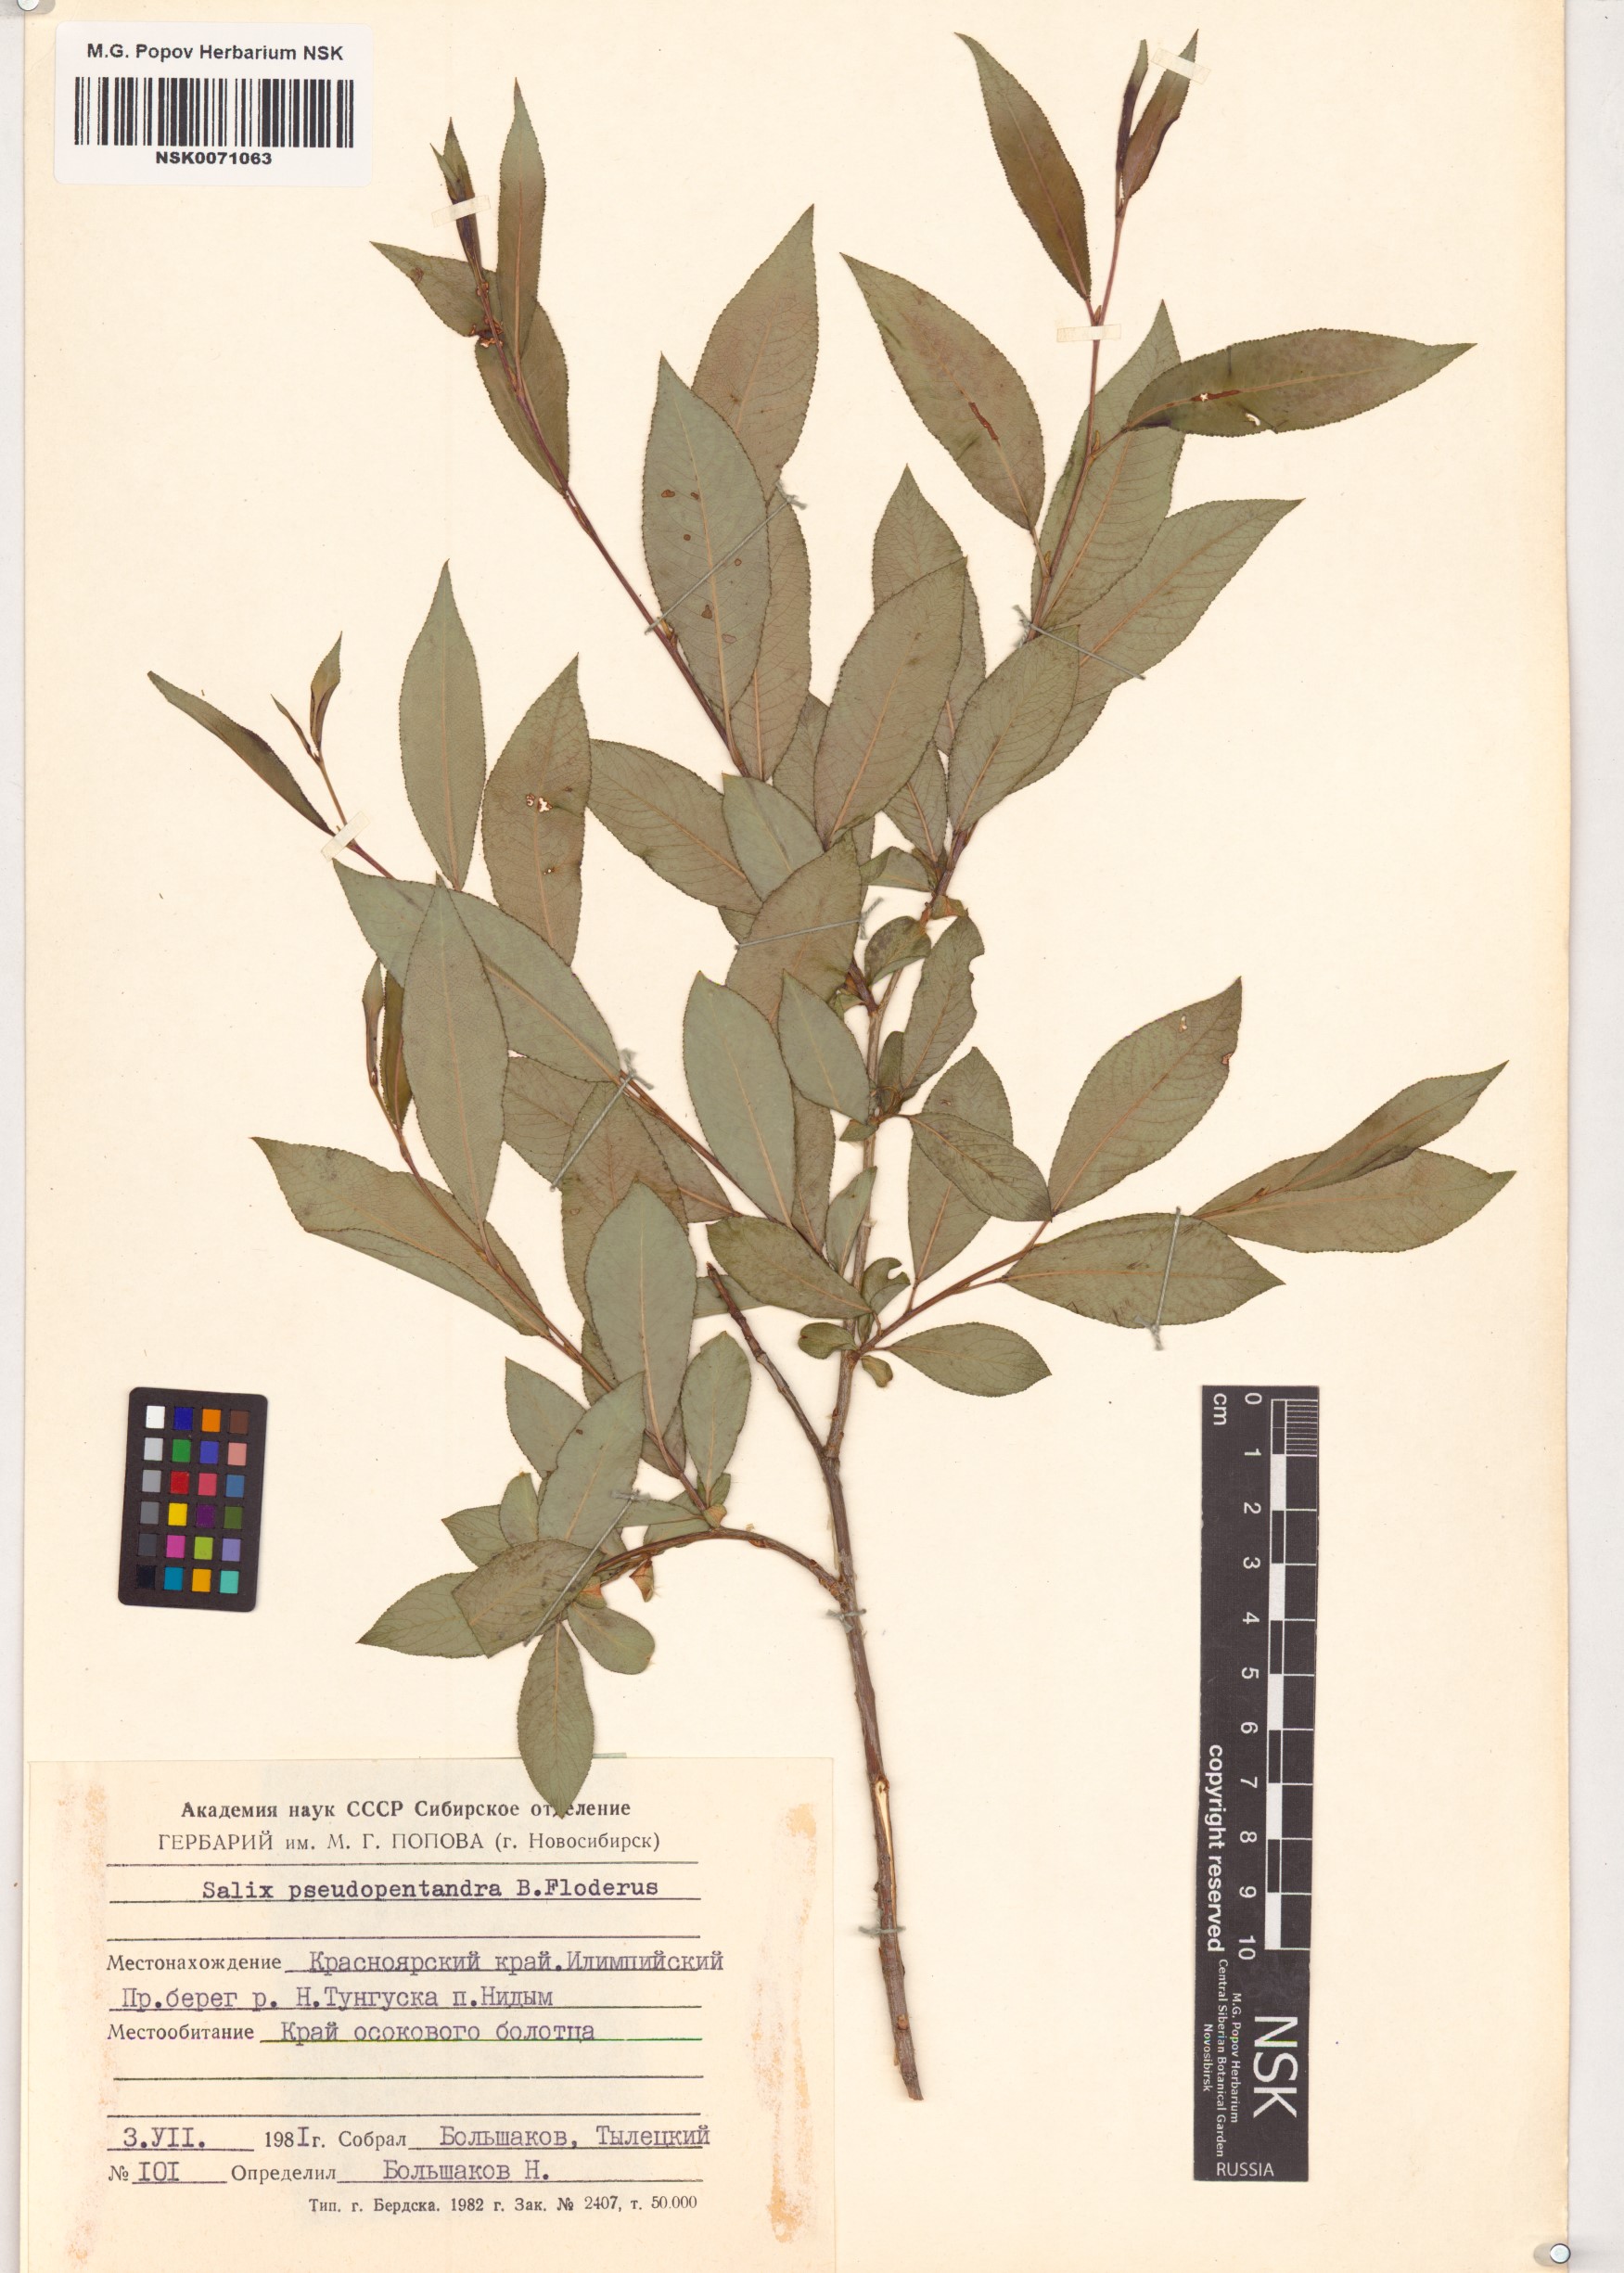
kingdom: Plantae
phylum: Tracheophyta
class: Magnoliopsida
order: Malpighiales
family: Salicaceae
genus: Salix
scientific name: Salix pseudopentandra
